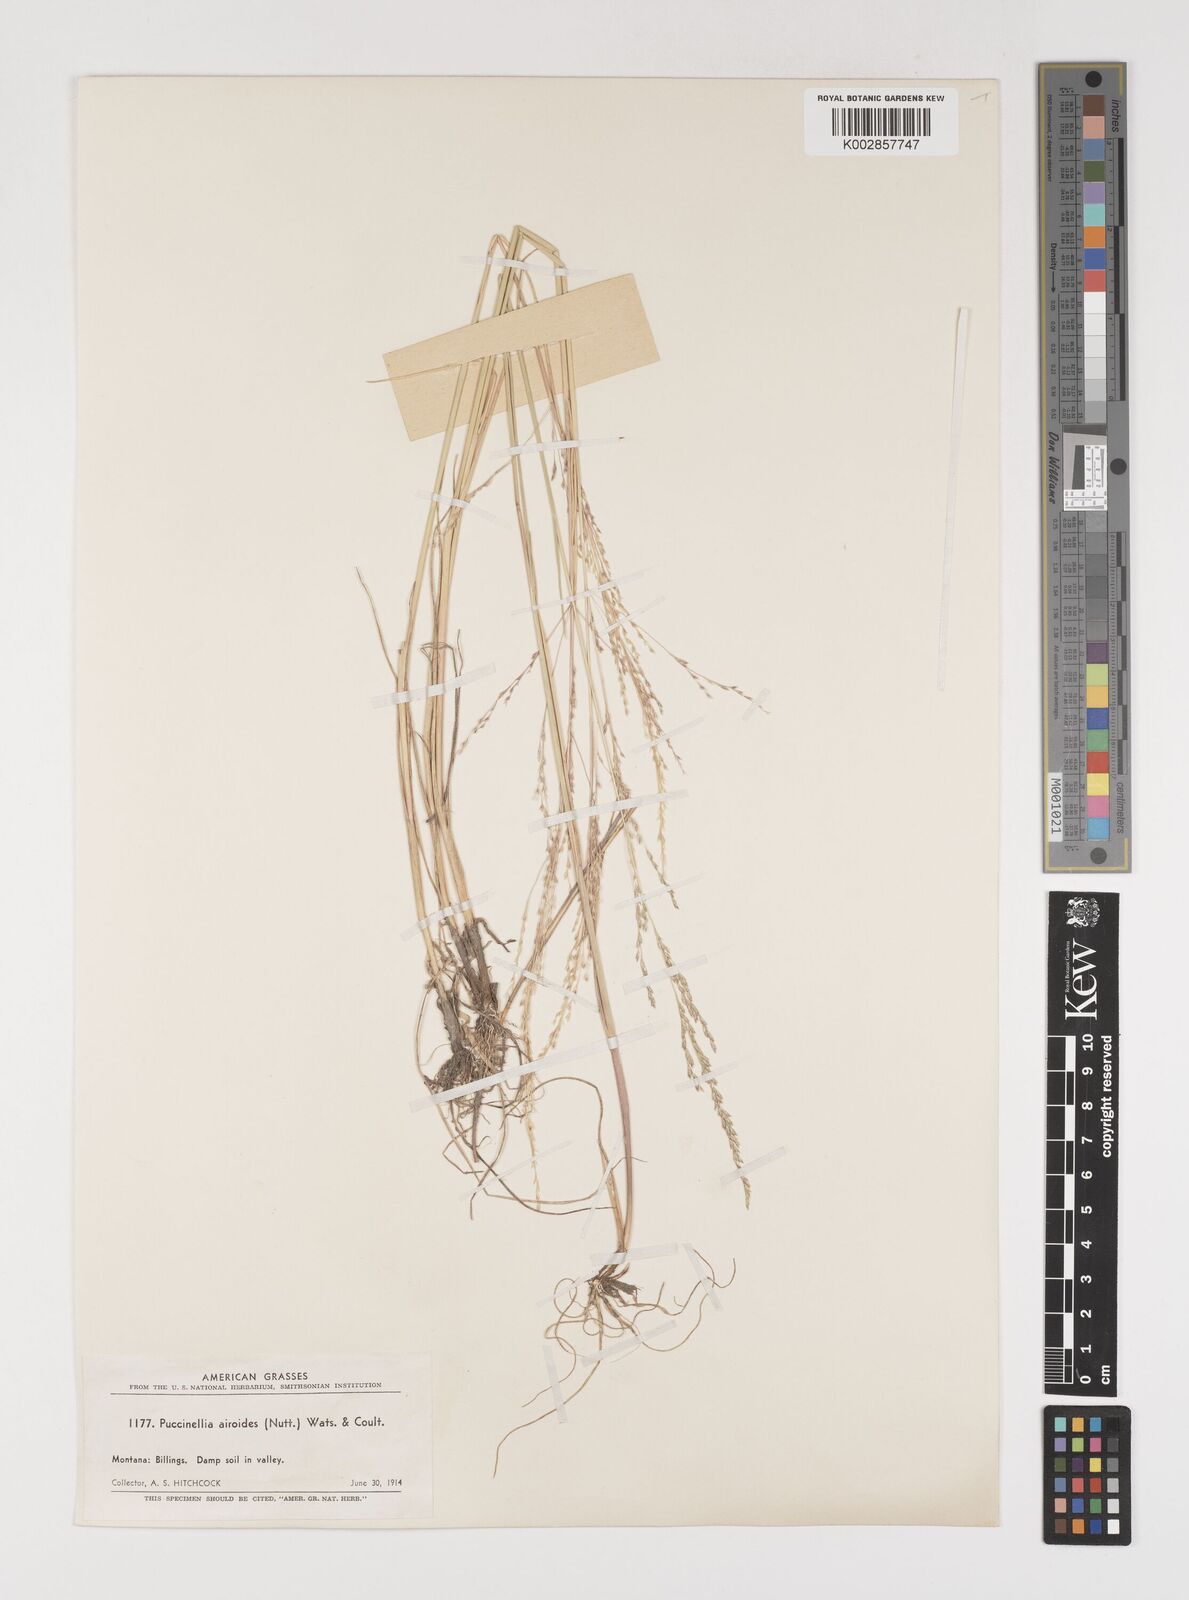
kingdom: Plantae
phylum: Tracheophyta
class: Liliopsida
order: Poales
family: Poaceae
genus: Puccinellia
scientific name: Puccinellia nuttalliana
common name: Nuttall's alkali grass
